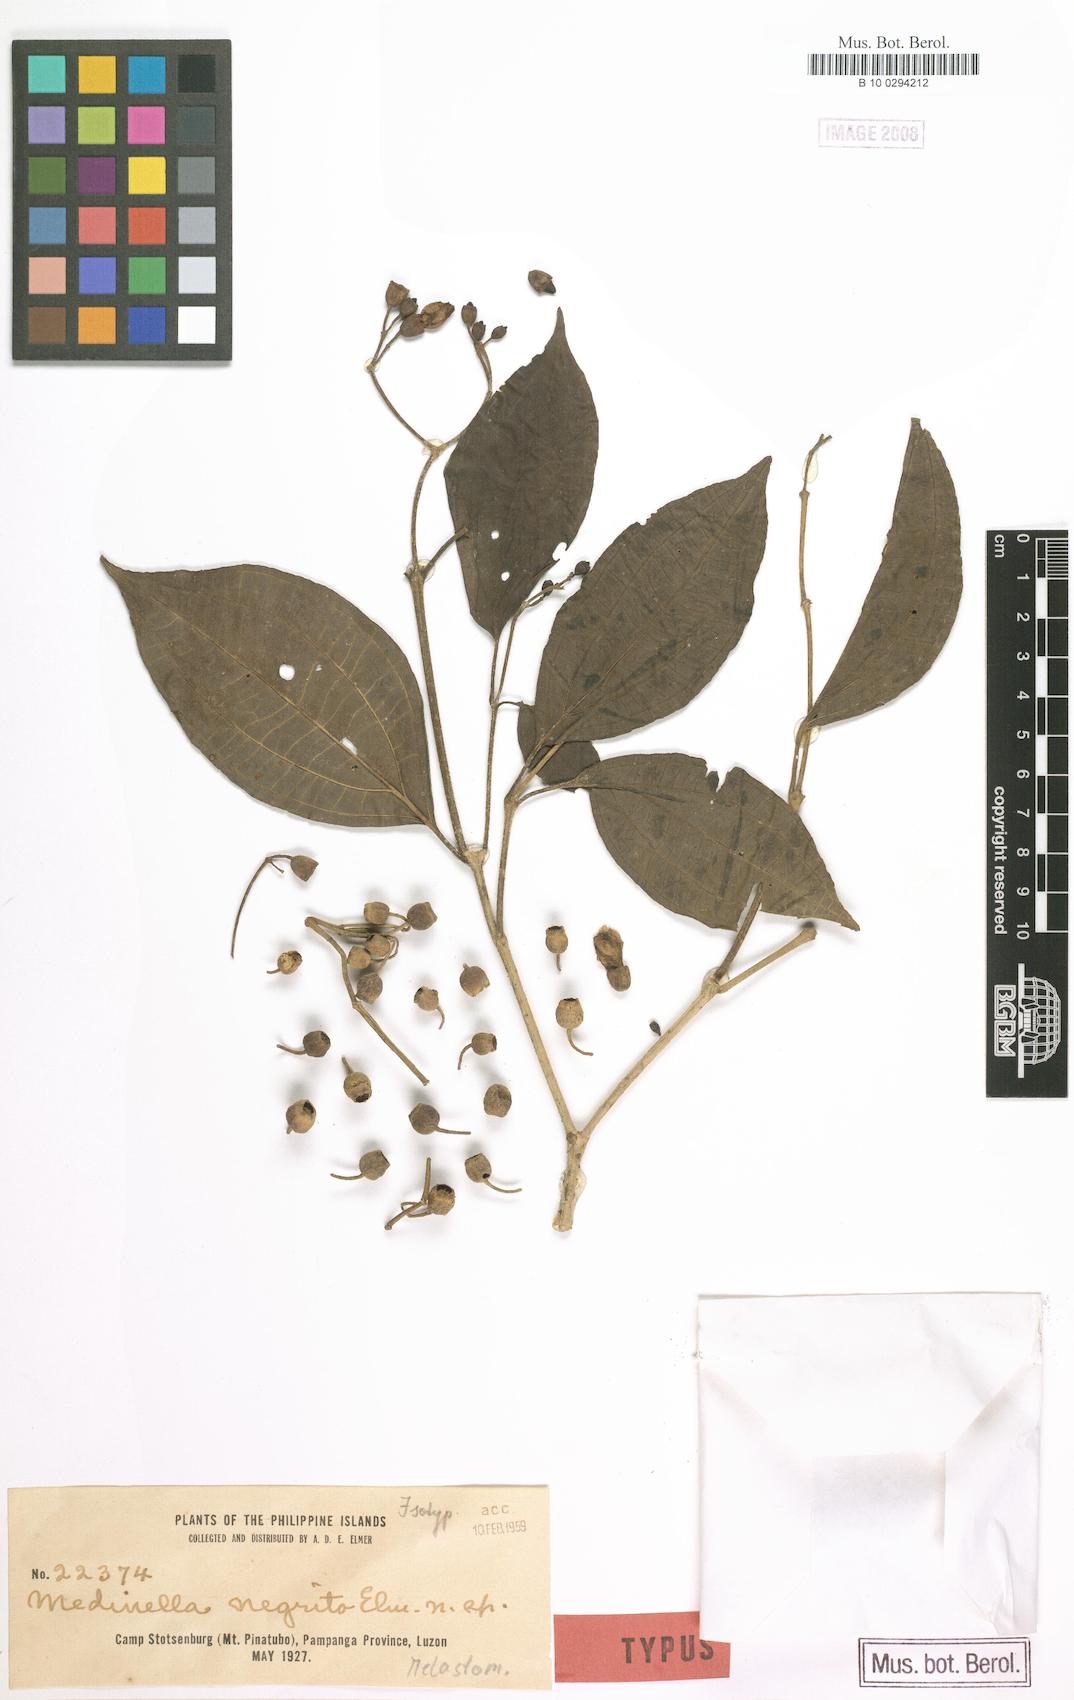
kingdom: Plantae
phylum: Tracheophyta
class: Magnoliopsida
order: Myrtales
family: Melastomataceae
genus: Medinilla
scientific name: Medinilla astronioides
